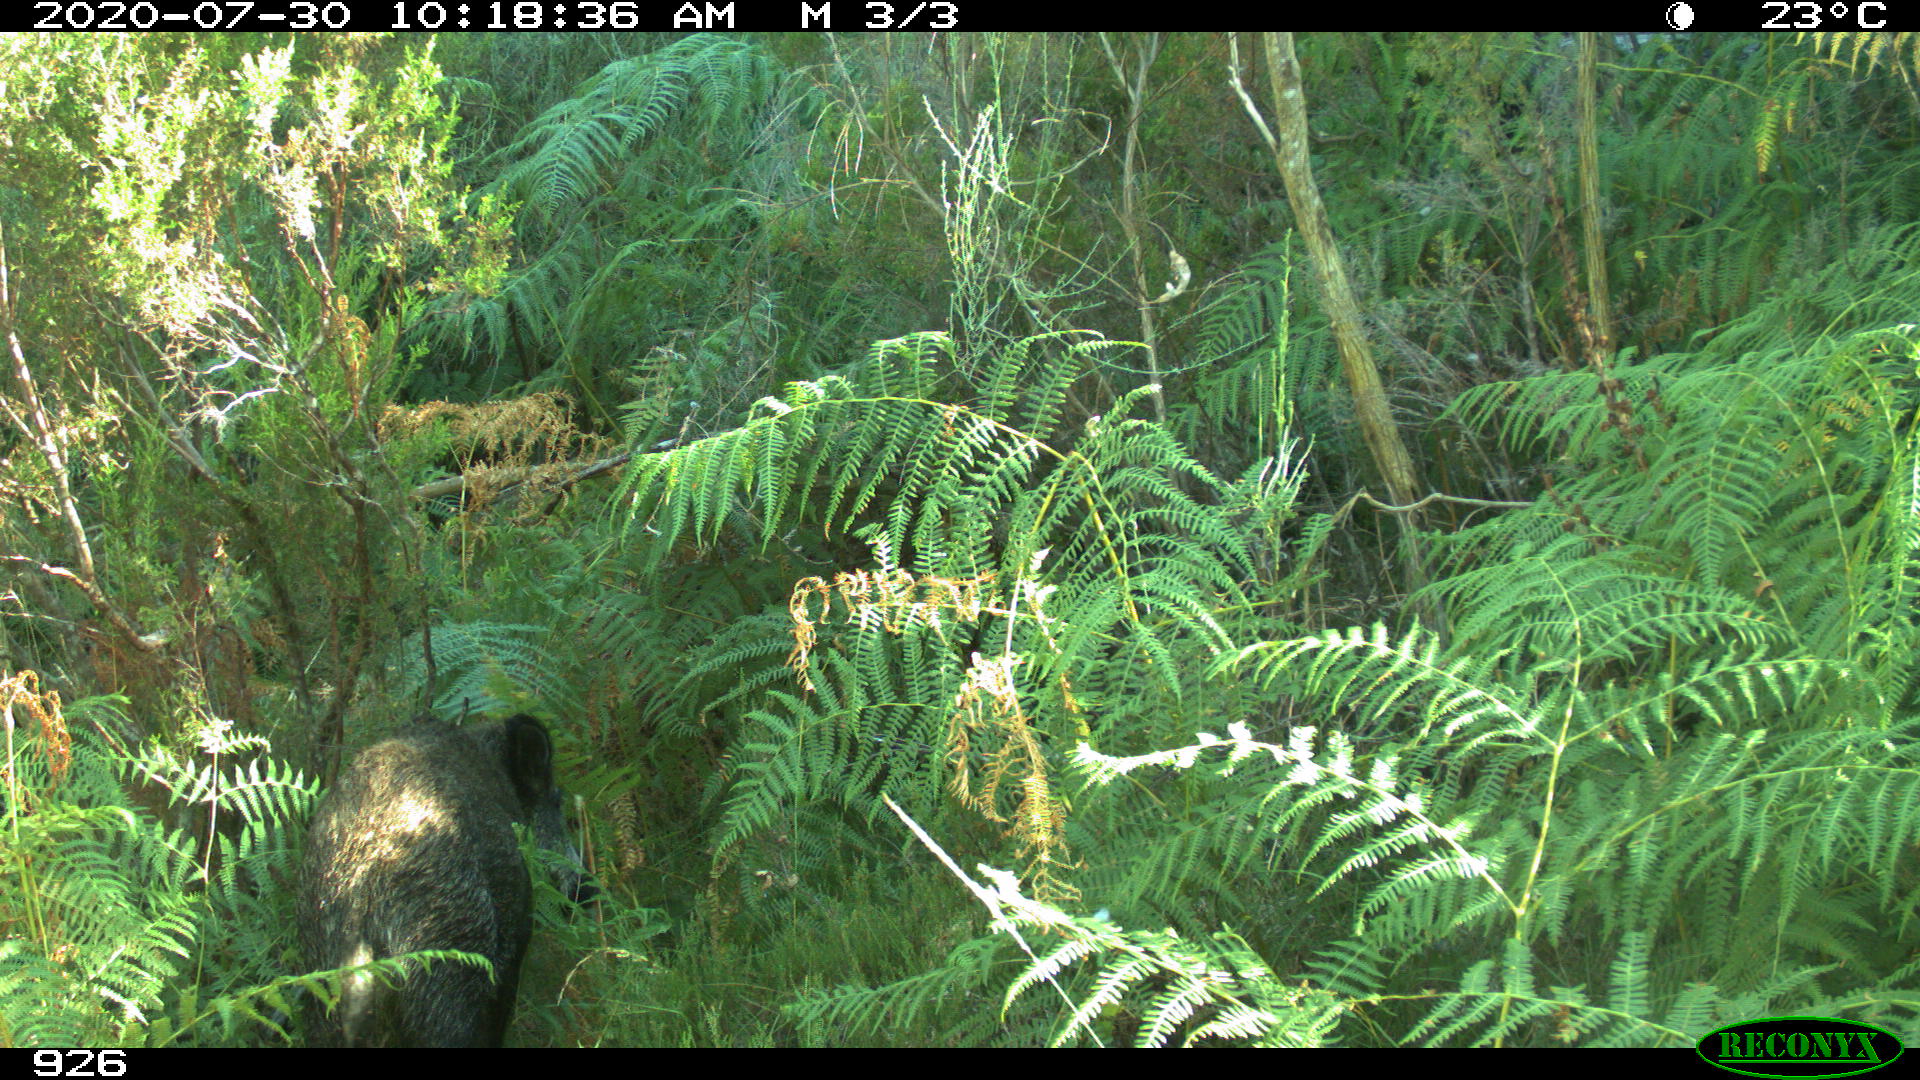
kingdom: Animalia
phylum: Chordata
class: Mammalia
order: Artiodactyla
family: Suidae
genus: Sus
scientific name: Sus scrofa
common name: Wild boar
